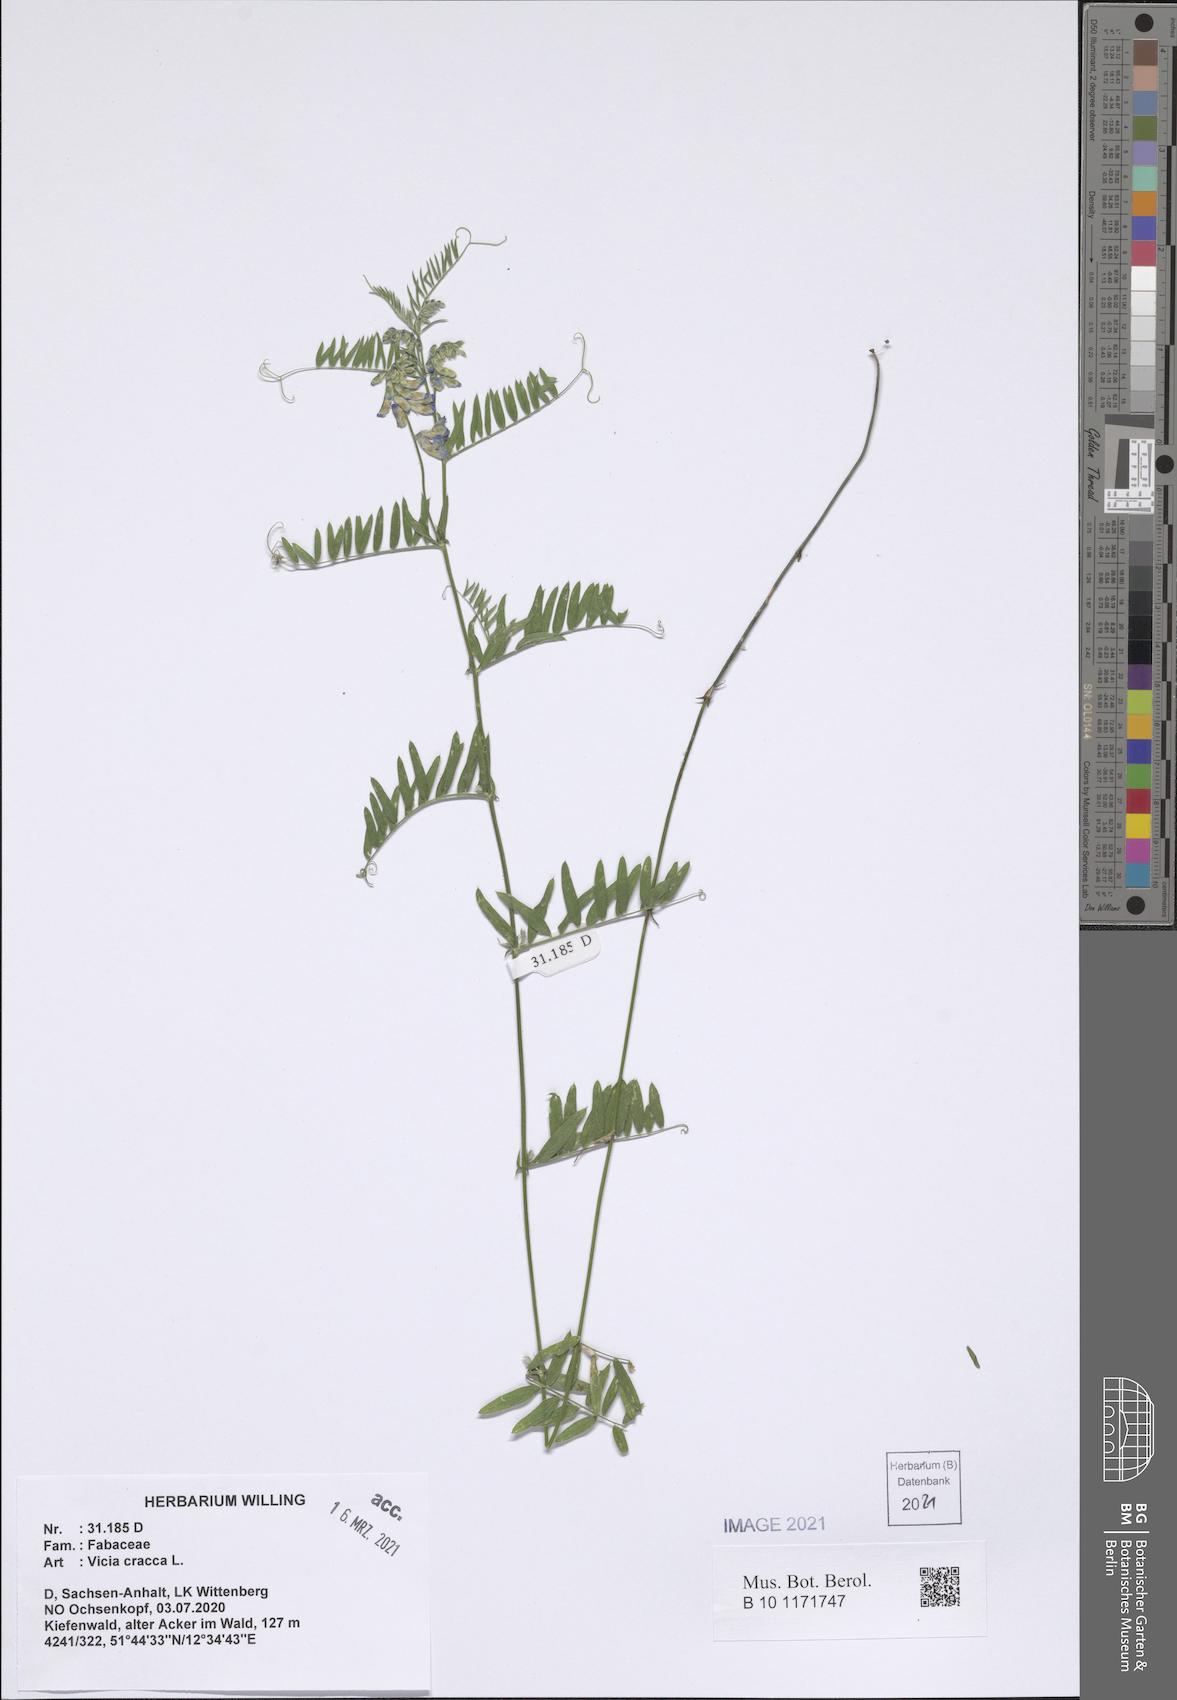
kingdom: Plantae
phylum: Tracheophyta
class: Magnoliopsida
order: Fabales
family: Fabaceae
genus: Vicia
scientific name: Vicia cracca
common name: Bird vetch
